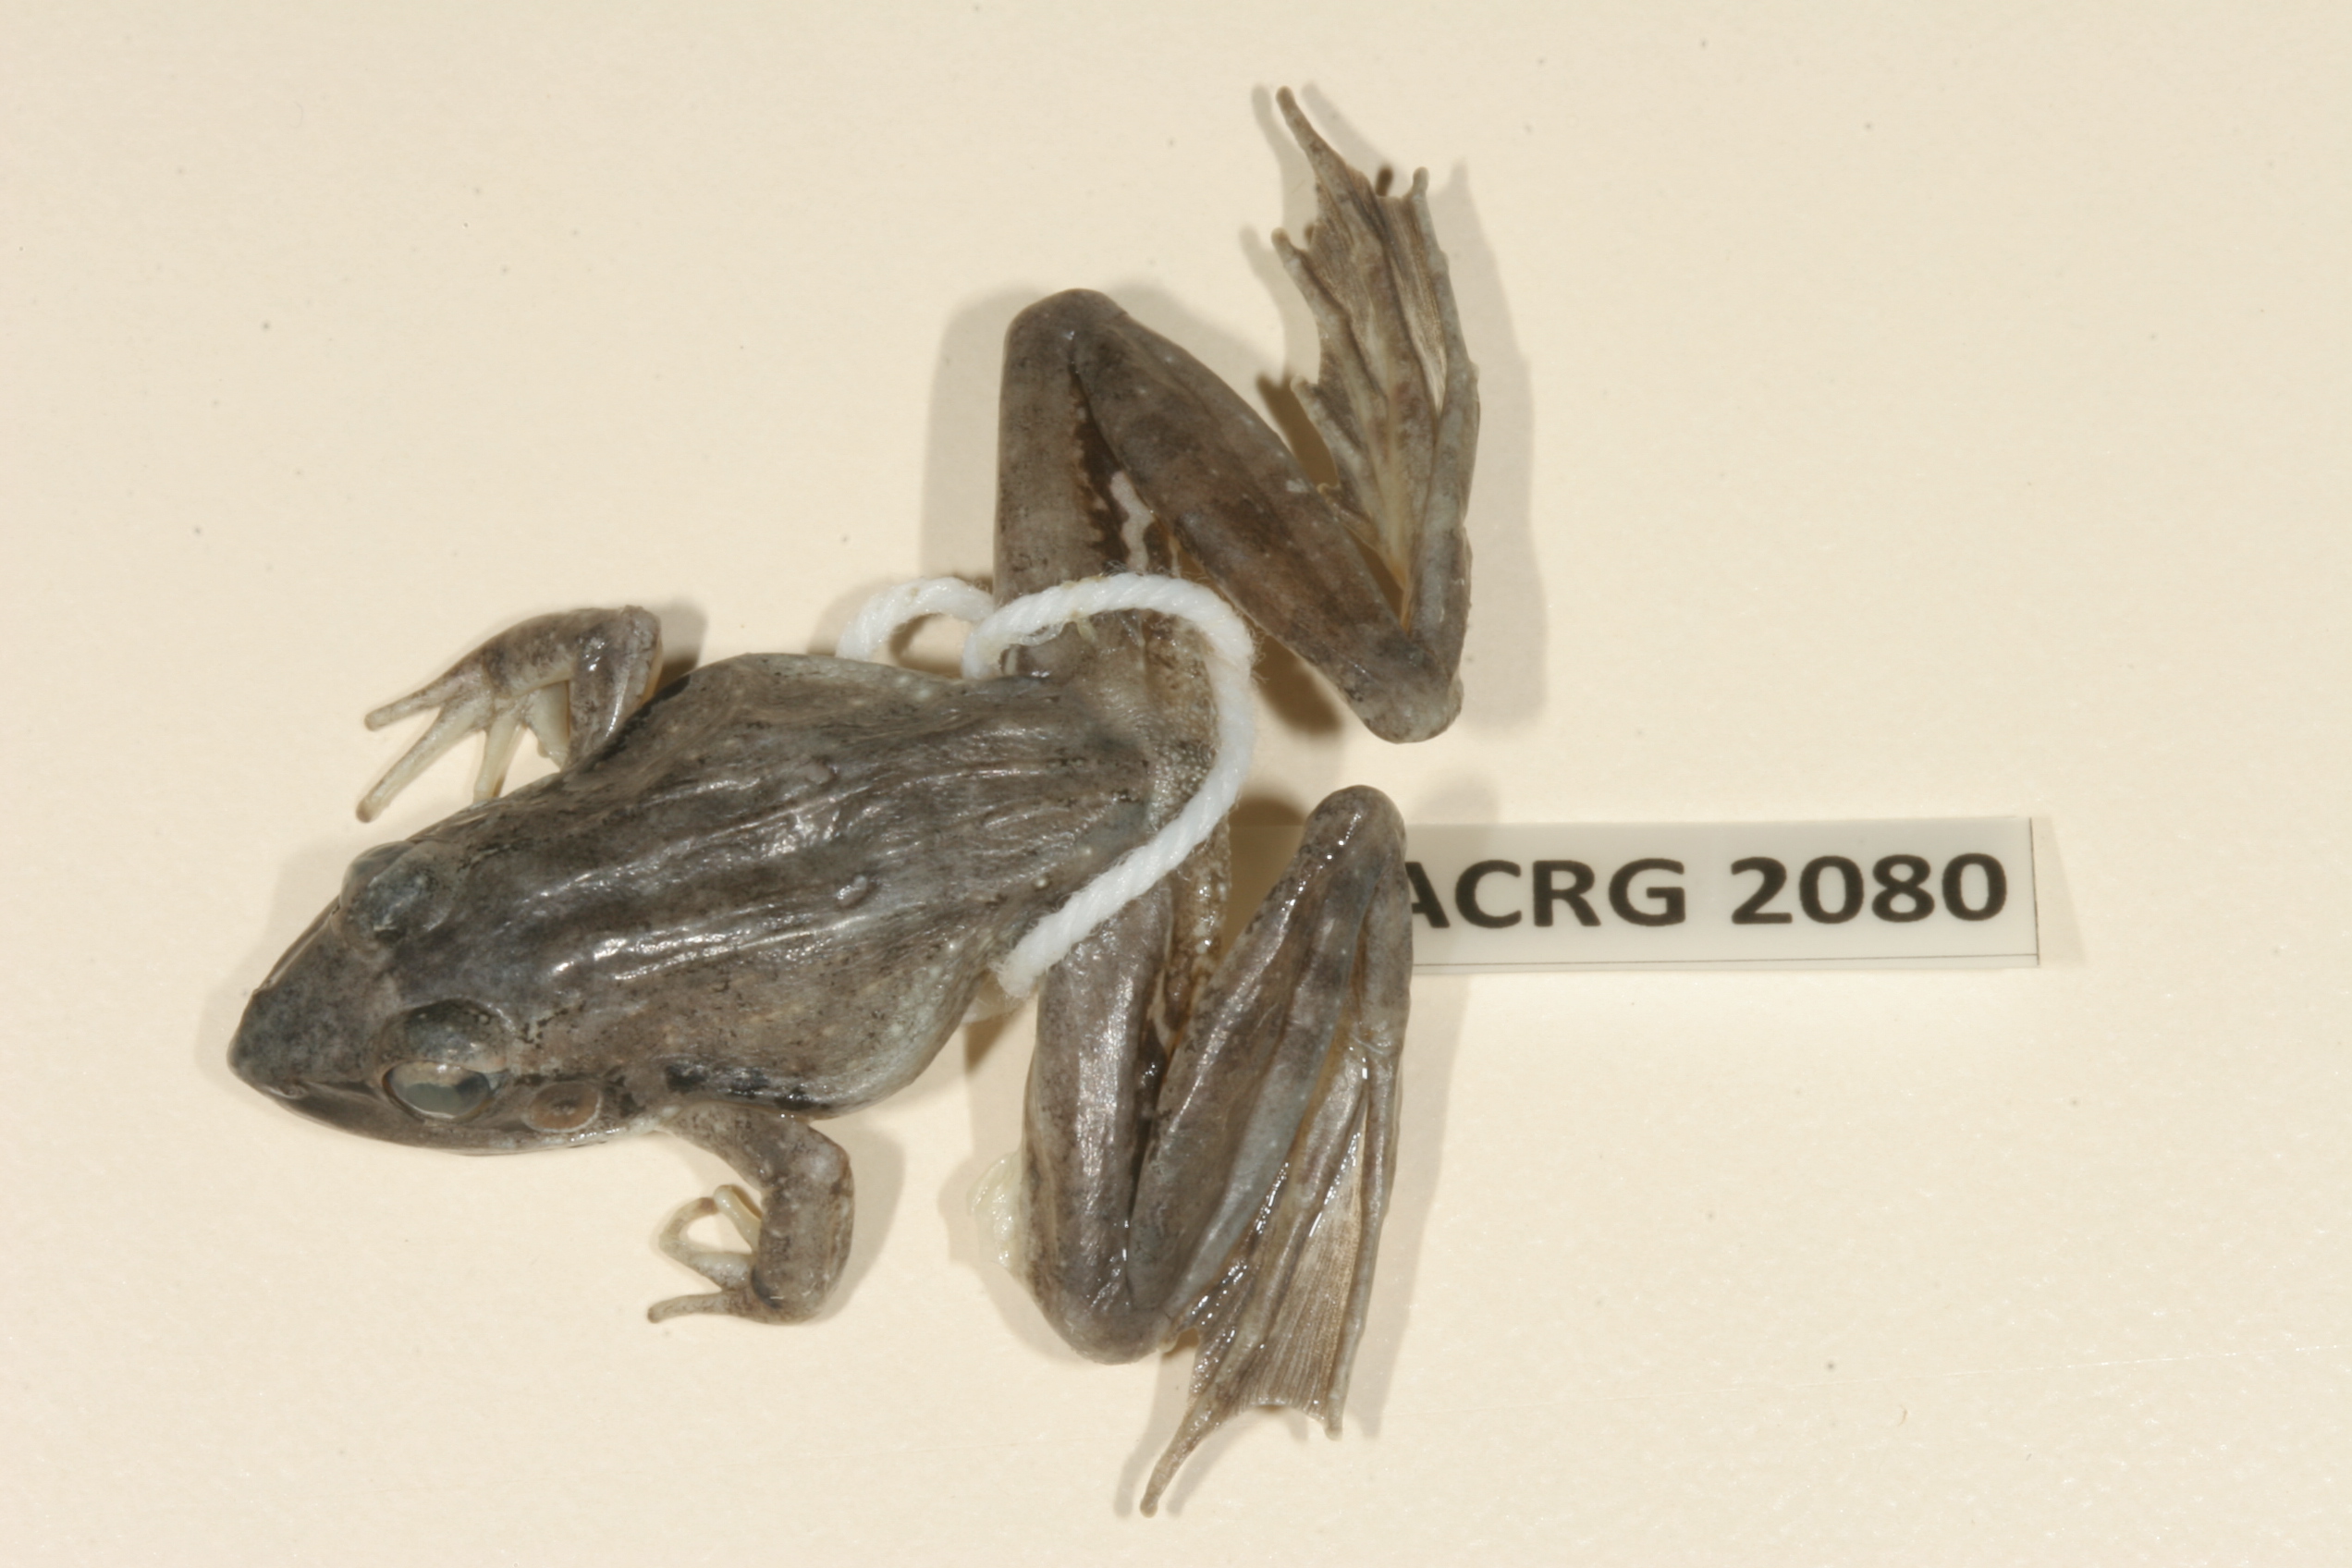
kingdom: Animalia
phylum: Chordata
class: Amphibia
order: Anura
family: Ptychadenidae
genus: Ptychadena
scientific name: Ptychadena anchietae
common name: Anchieta's ridged frog
